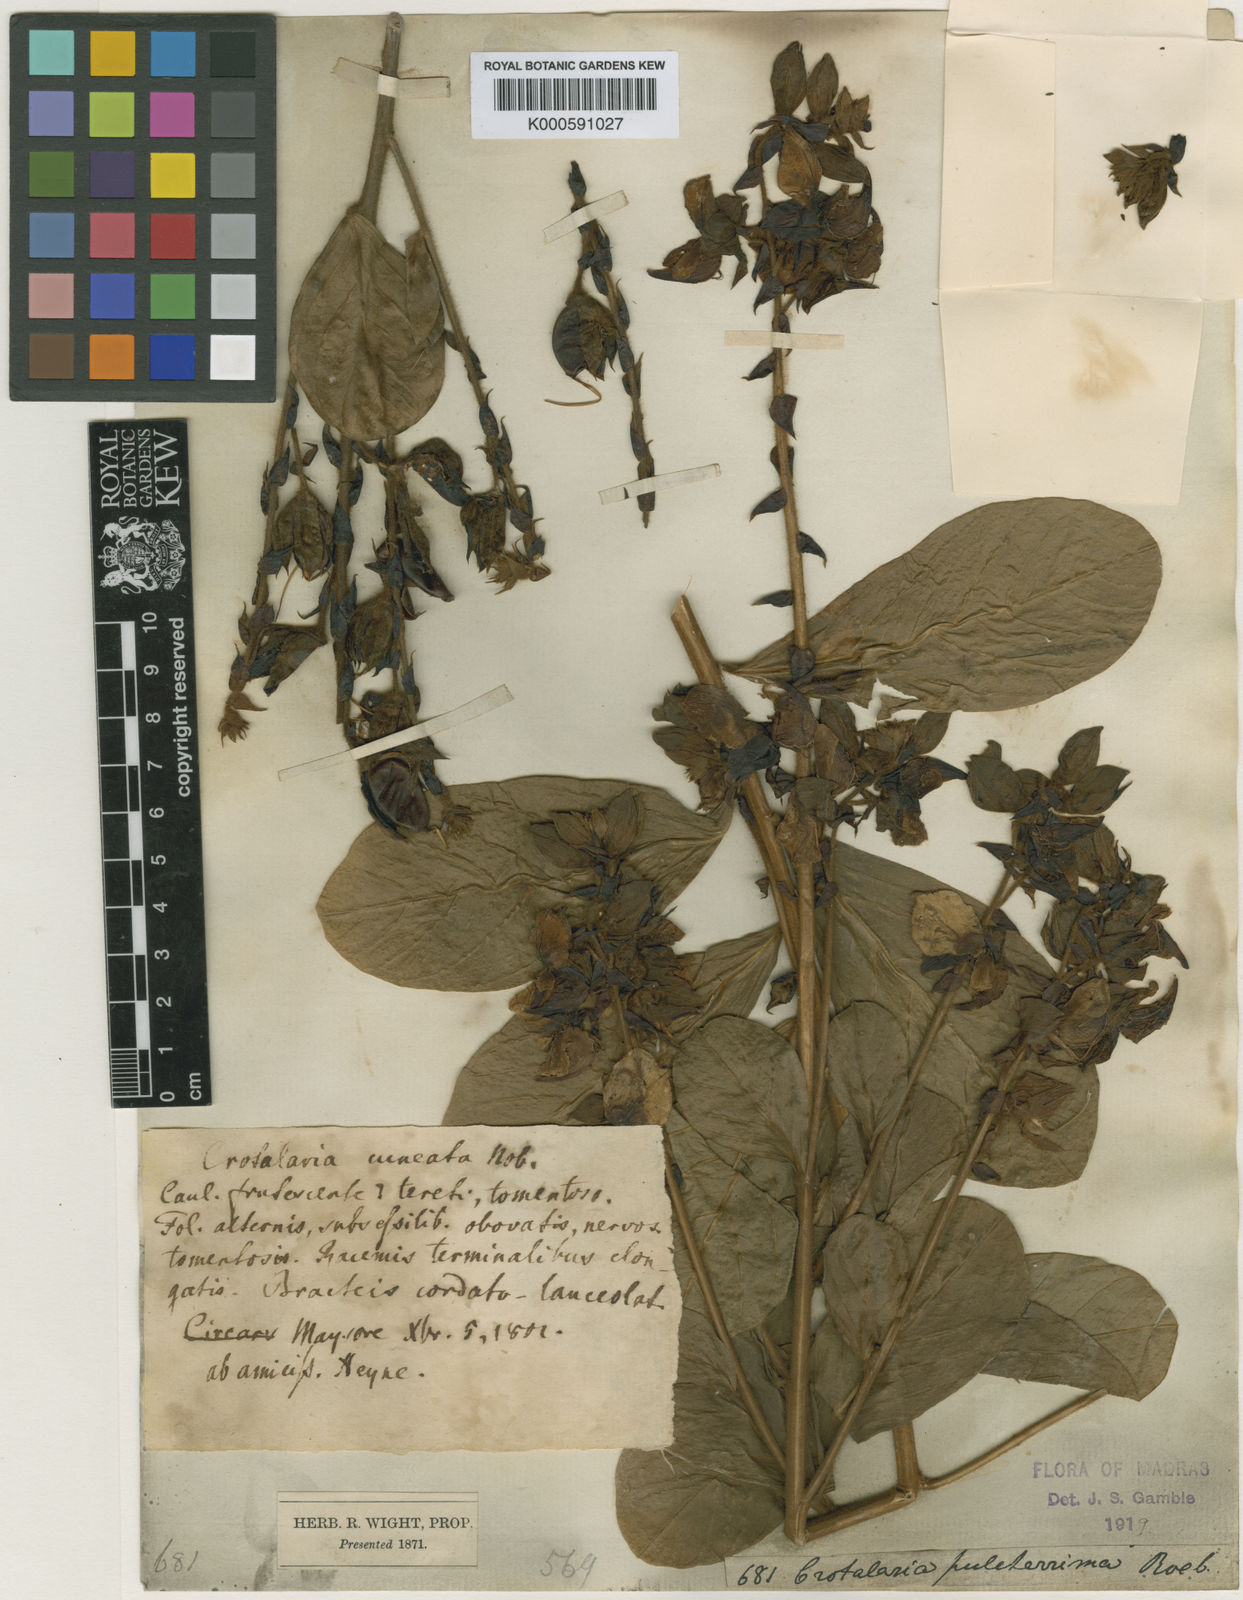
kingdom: Plantae
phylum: Tracheophyta
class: Magnoliopsida
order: Fabales
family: Fabaceae
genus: Crotalaria
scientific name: Crotalaria pulcherrima
